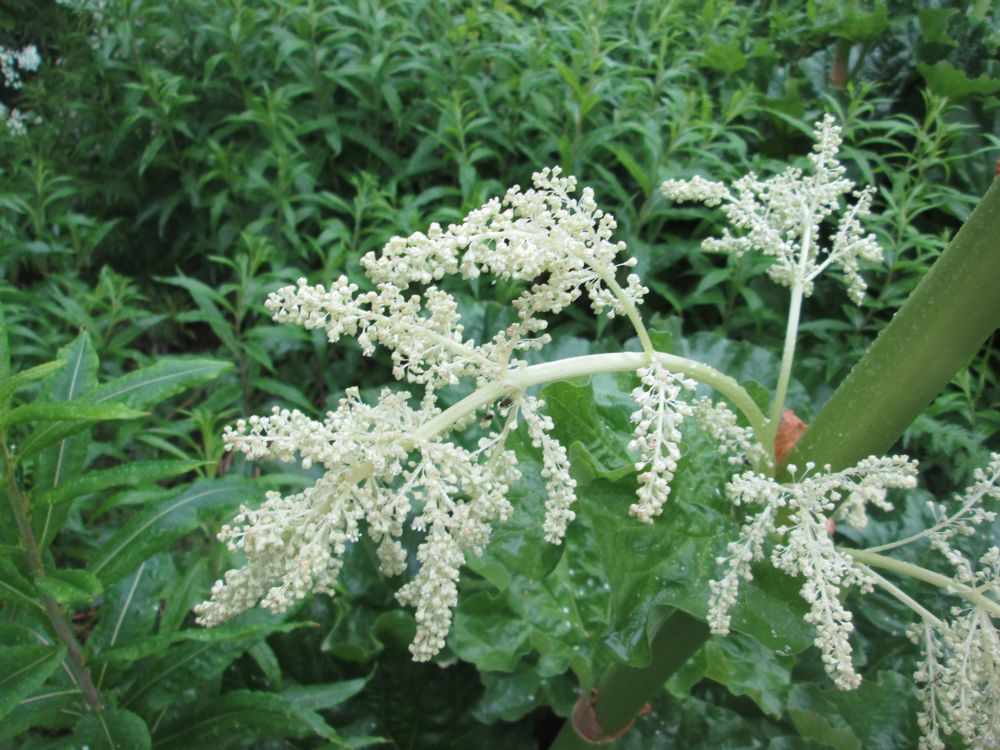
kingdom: Plantae
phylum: Tracheophyta
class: Magnoliopsida
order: Caryophyllales
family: Polygonaceae
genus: Rheum
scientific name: Rheum rhabarbarum
